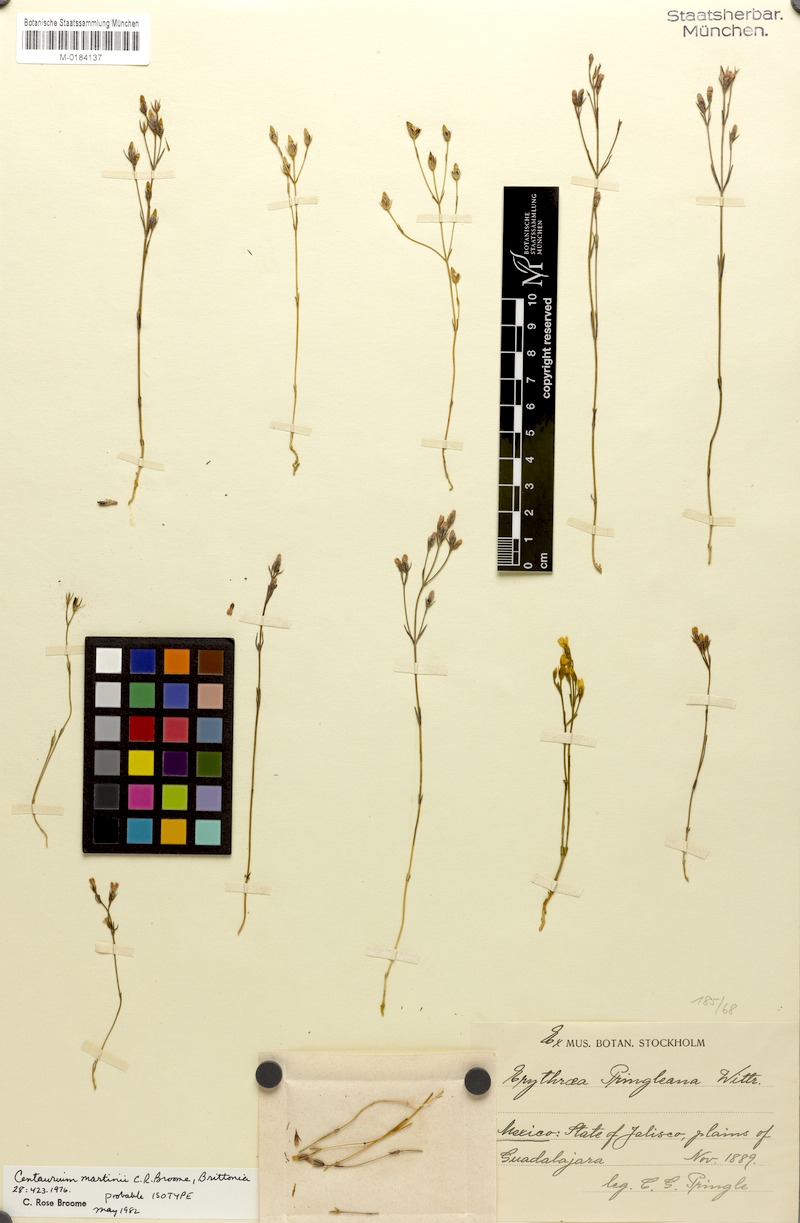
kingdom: Plantae
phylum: Tracheophyta
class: Magnoliopsida
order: Gentianales
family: Gentianaceae
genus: Zeltnera
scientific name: Zeltnera martinii
